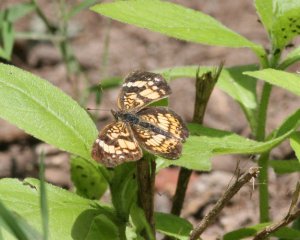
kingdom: Animalia
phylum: Arthropoda
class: Insecta
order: Lepidoptera
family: Nymphalidae
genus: Chlosyne
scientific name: Chlosyne nycteis
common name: Silvery Checkerspot
